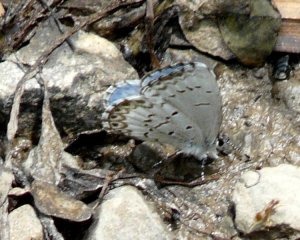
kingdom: Animalia
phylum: Arthropoda
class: Insecta
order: Lepidoptera
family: Lycaenidae
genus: Cyaniris
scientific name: Cyaniris neglecta
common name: Summer Azure
